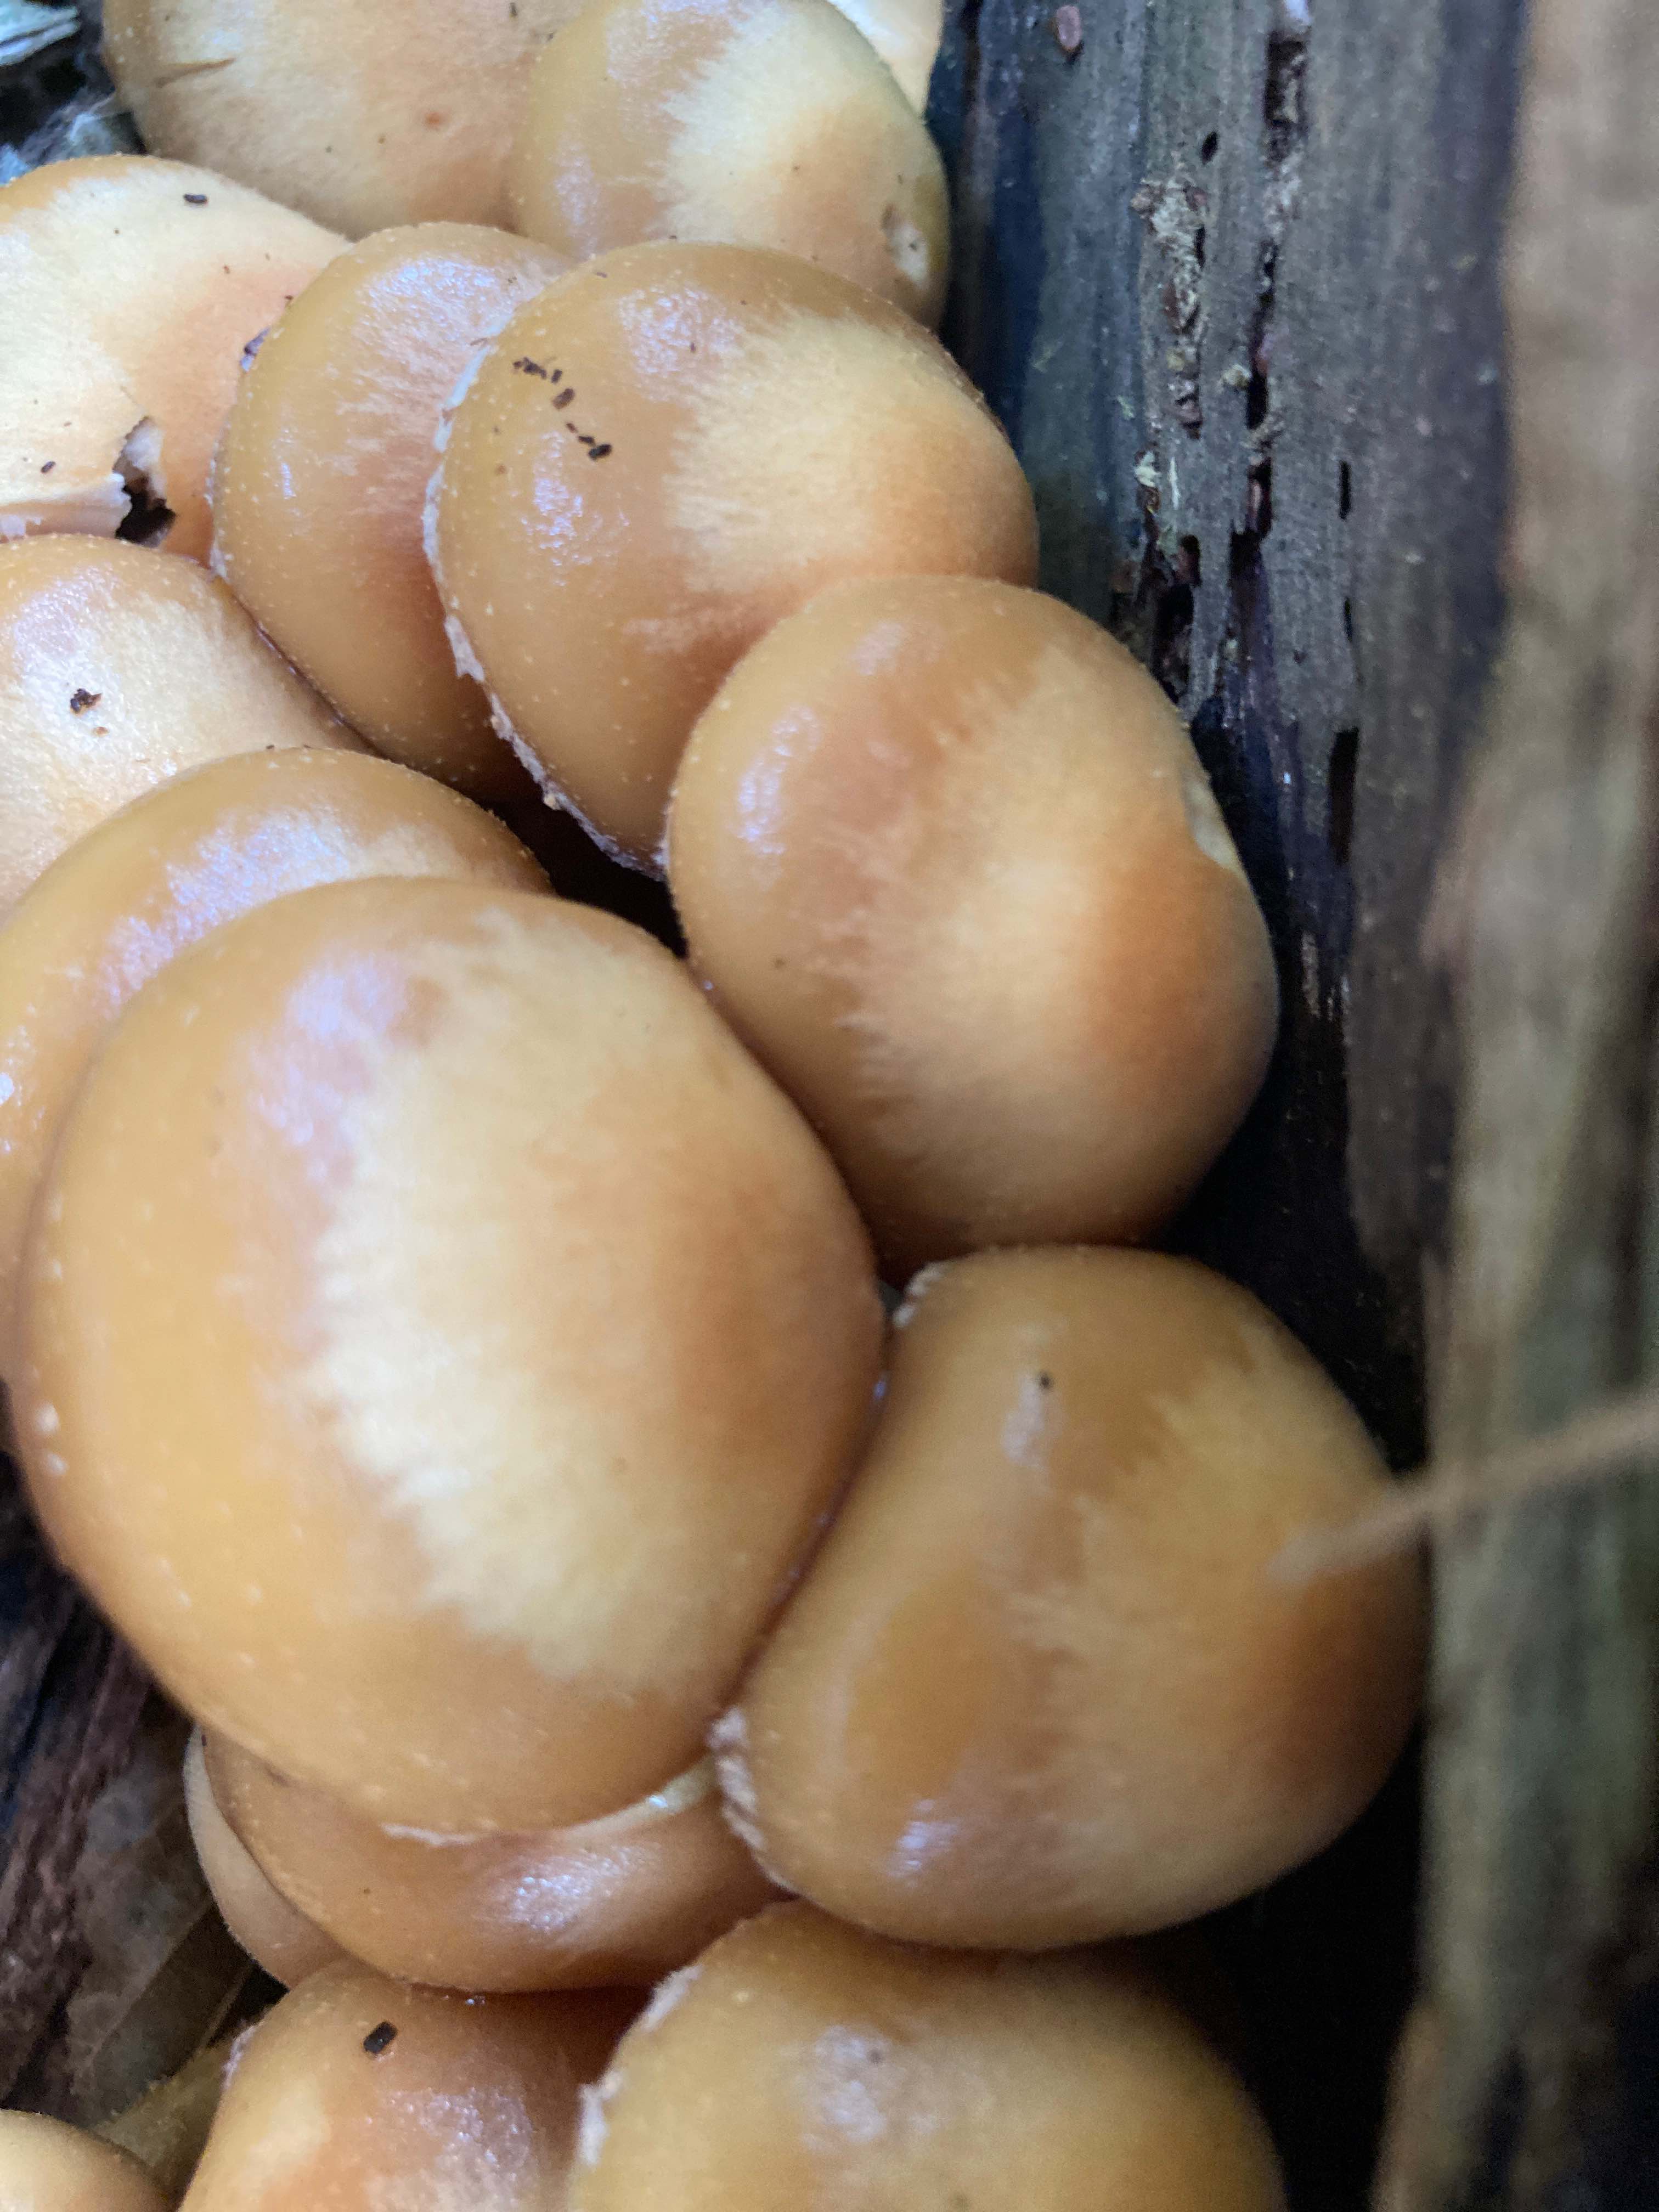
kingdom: Fungi
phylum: Basidiomycota
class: Agaricomycetes
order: Agaricales
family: Strophariaceae
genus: Kuehneromyces
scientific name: Kuehneromyces mutabilis
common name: foranderlig skælhat
